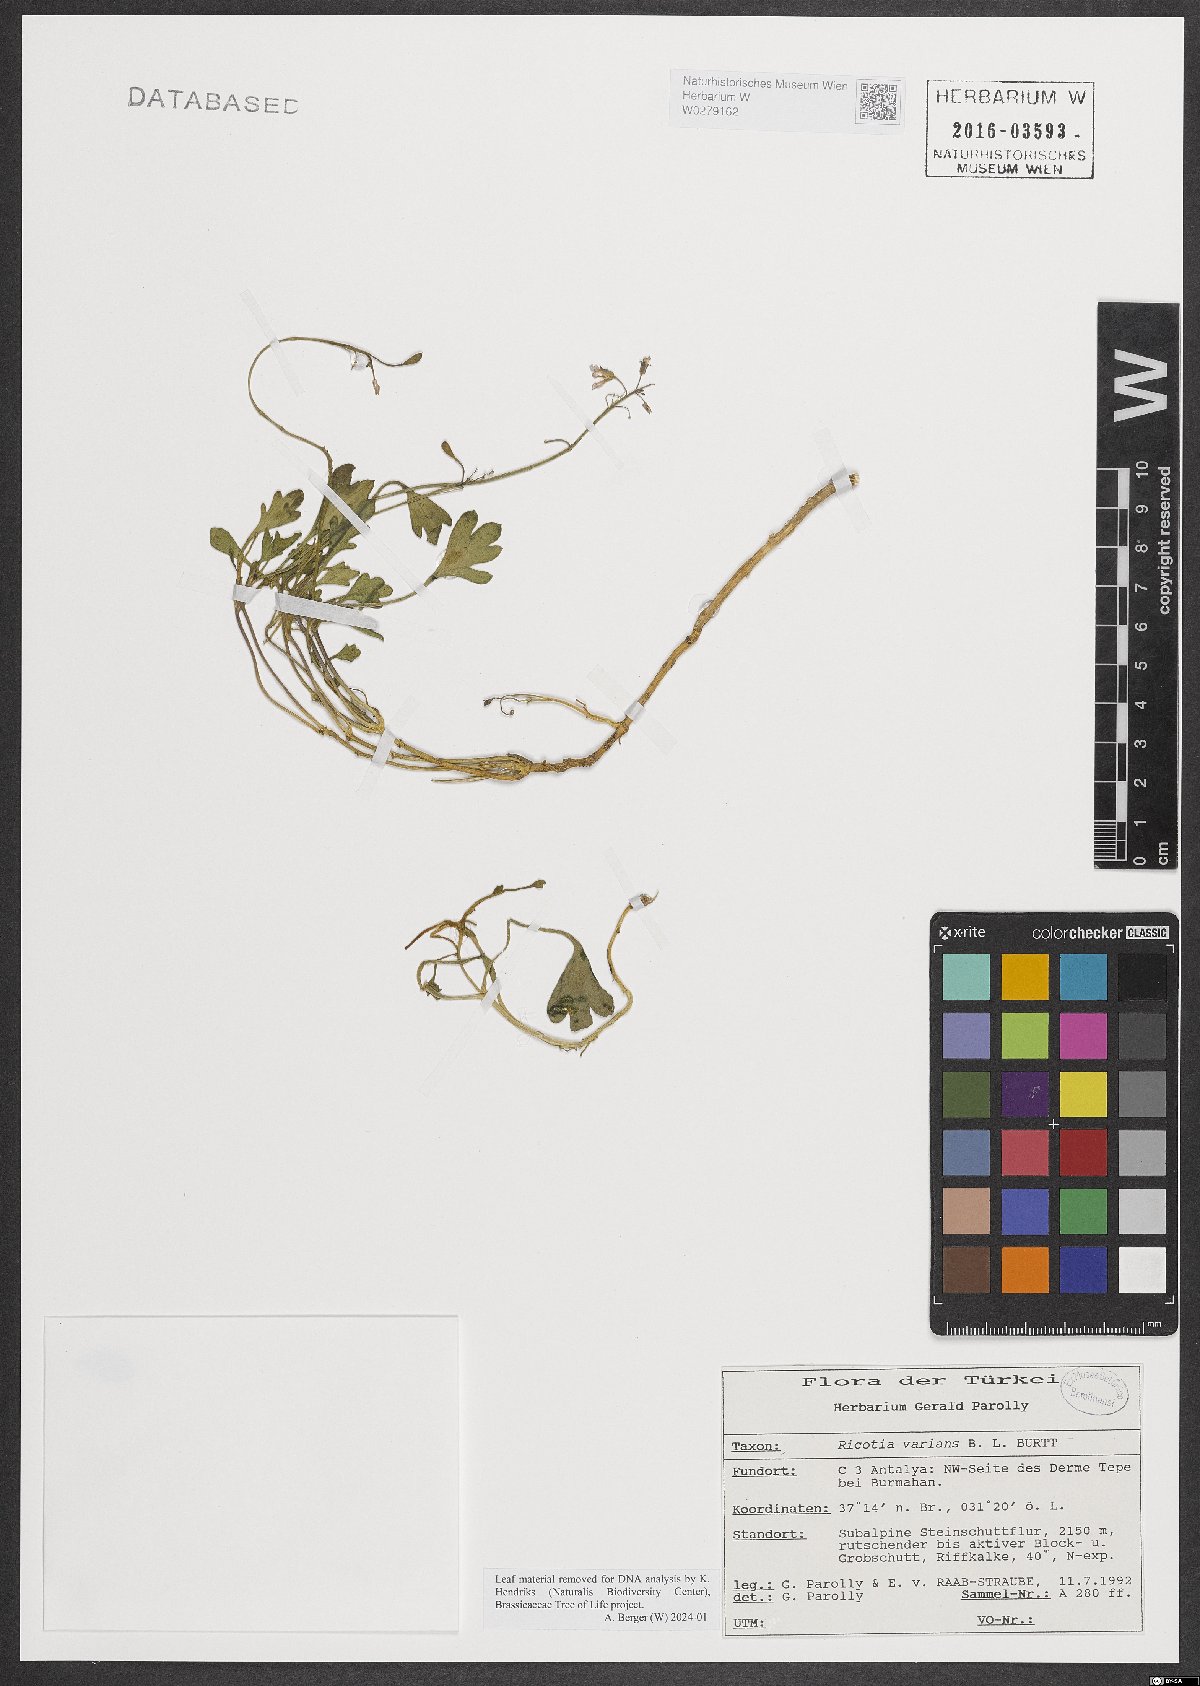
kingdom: Plantae
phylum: Tracheophyta
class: Magnoliopsida
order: Brassicales
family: Brassicaceae
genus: Ricotia
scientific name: Ricotia varians
